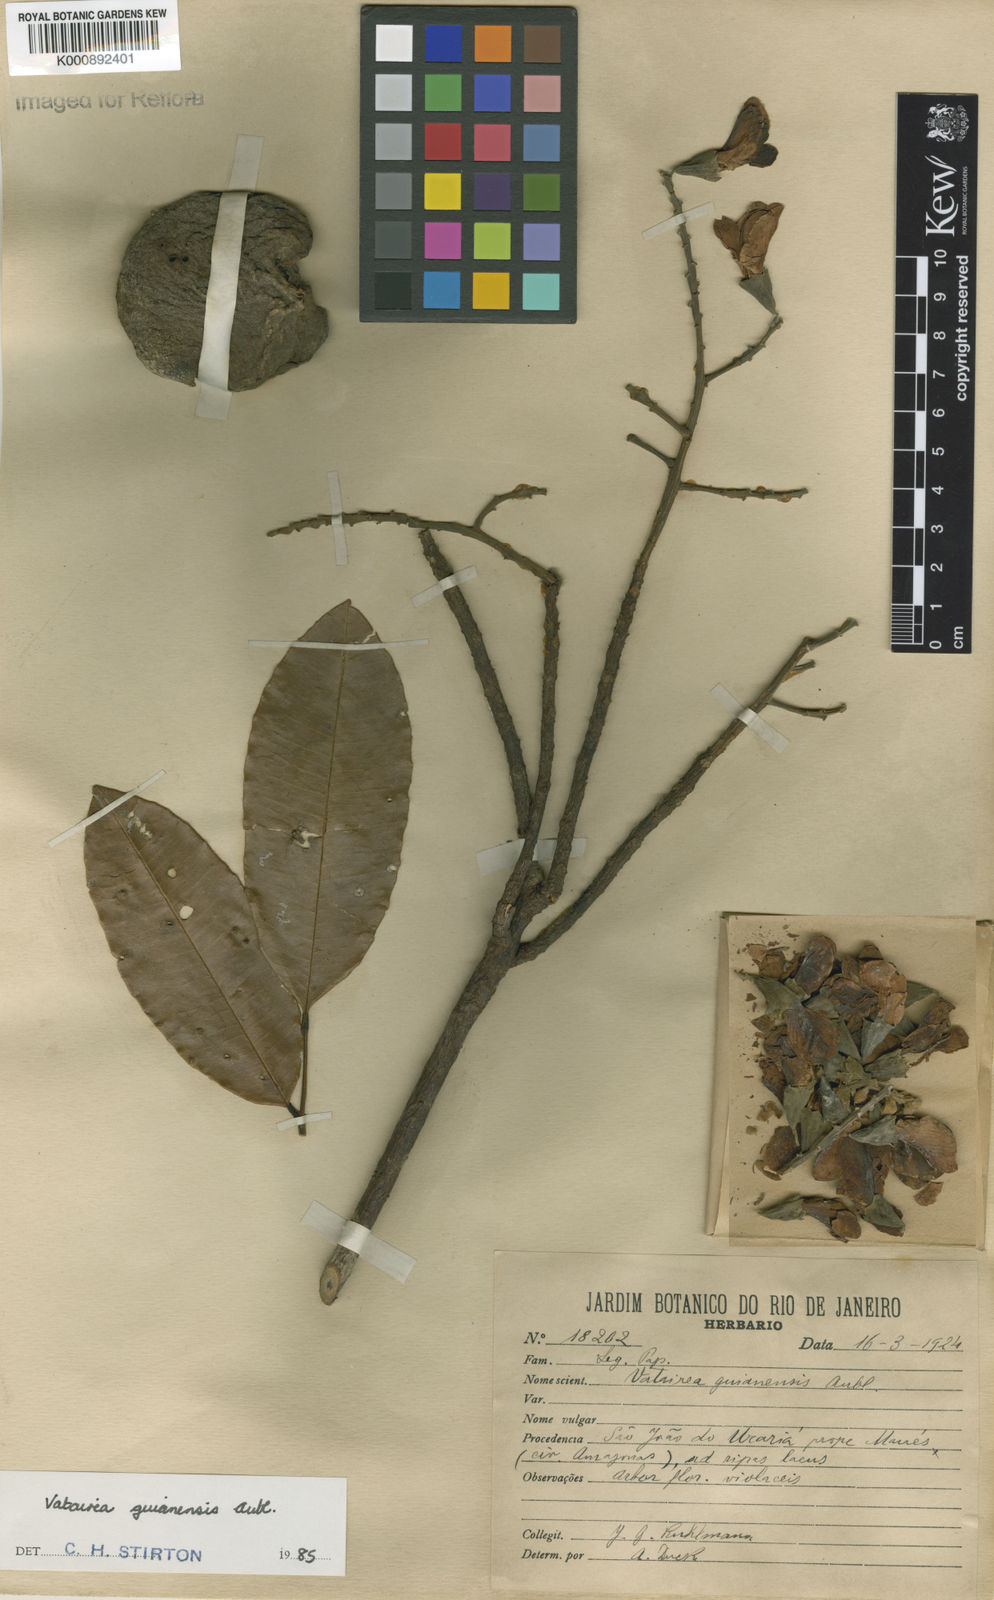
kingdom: Plantae
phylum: Tracheophyta
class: Magnoliopsida
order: Fabales
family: Fabaceae
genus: Vatairea
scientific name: Vatairea guianensis
